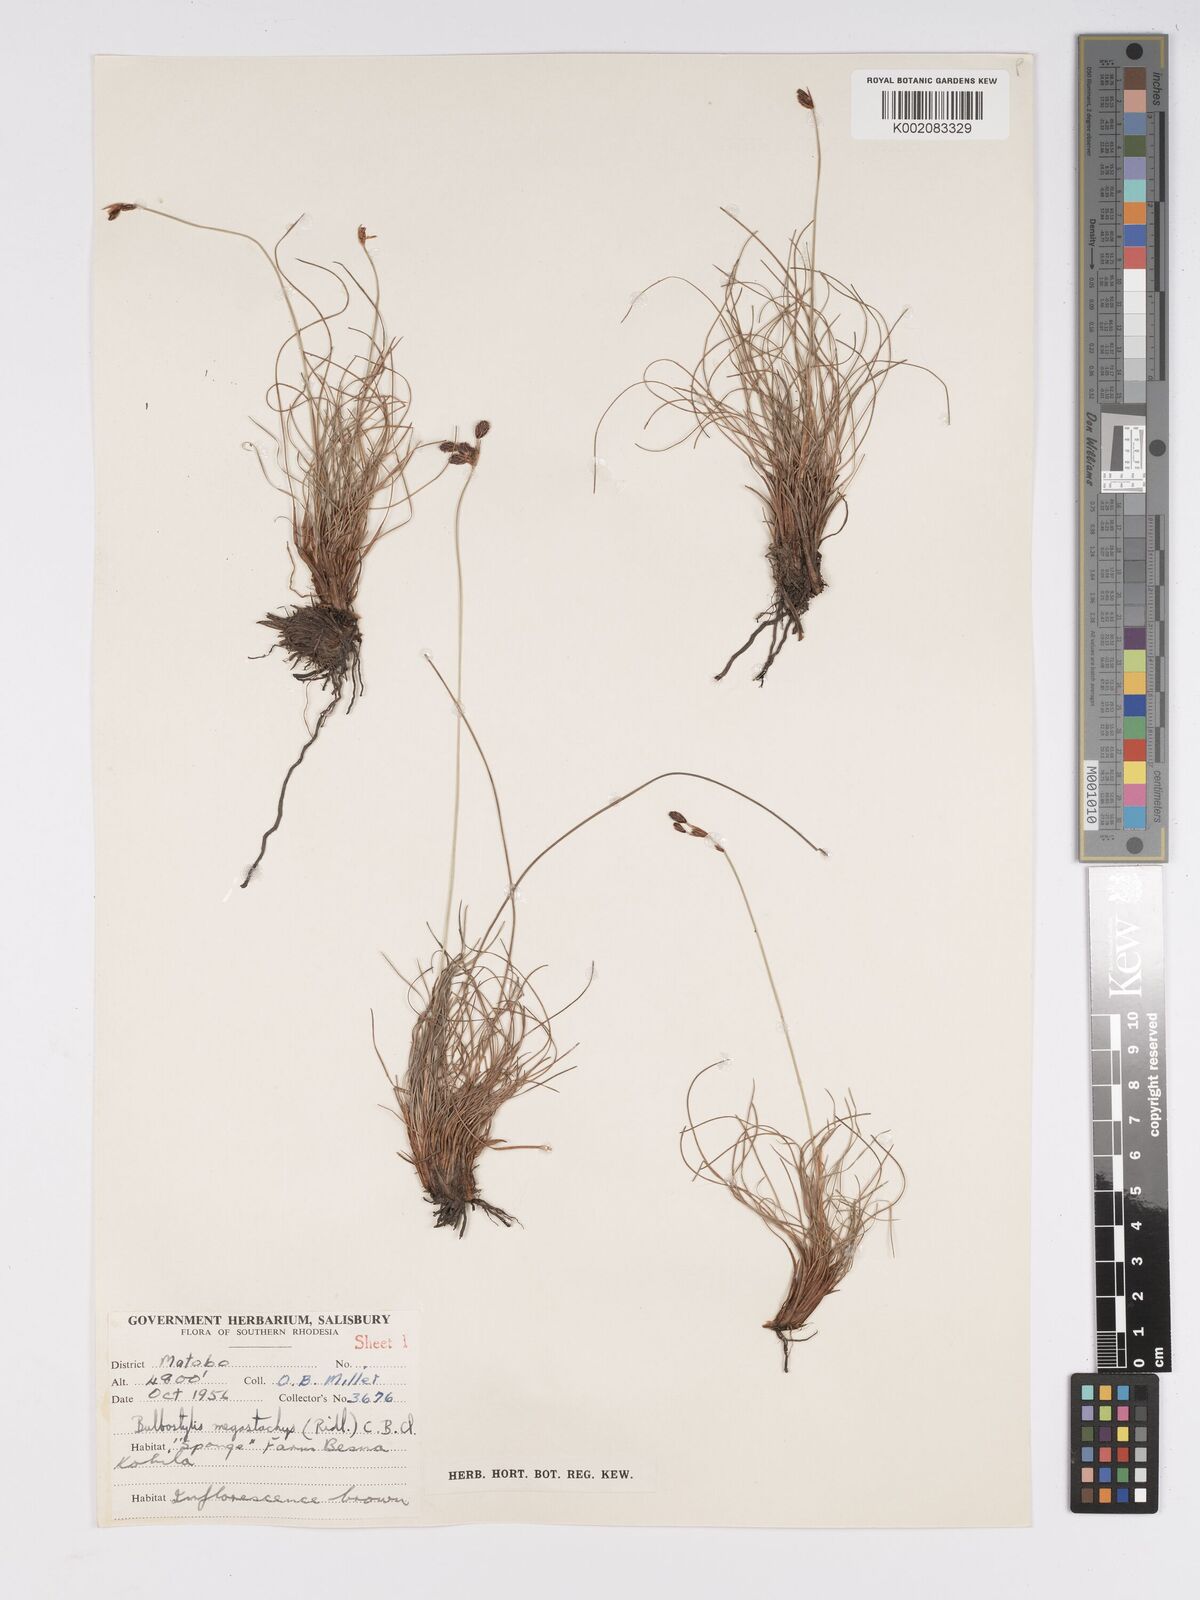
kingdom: Plantae
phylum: Tracheophyta
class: Liliopsida
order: Poales
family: Cyperaceae
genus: Bulbostylis
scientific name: Bulbostylis schoenoides
